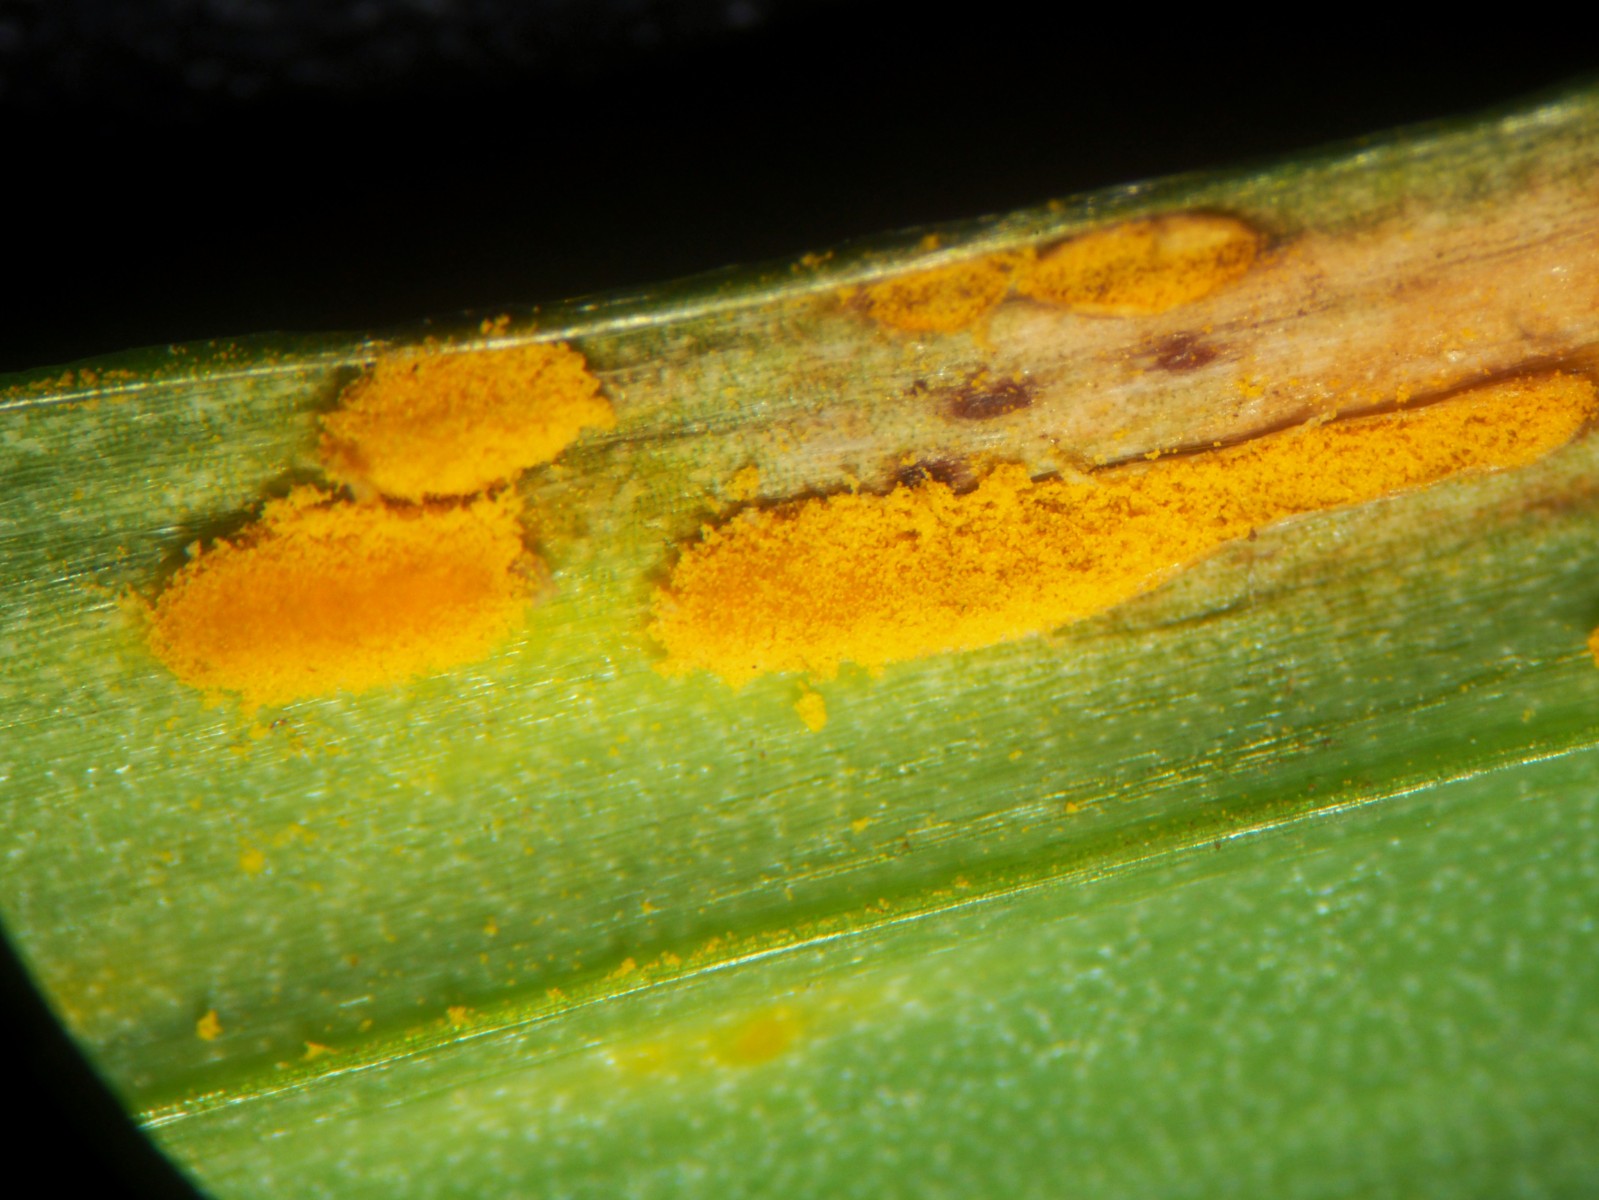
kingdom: Fungi
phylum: Basidiomycota
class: Pucciniomycetes
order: Pucciniales
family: Pucciniaceae
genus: Puccinia
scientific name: Puccinia sessilis
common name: Arum rust
